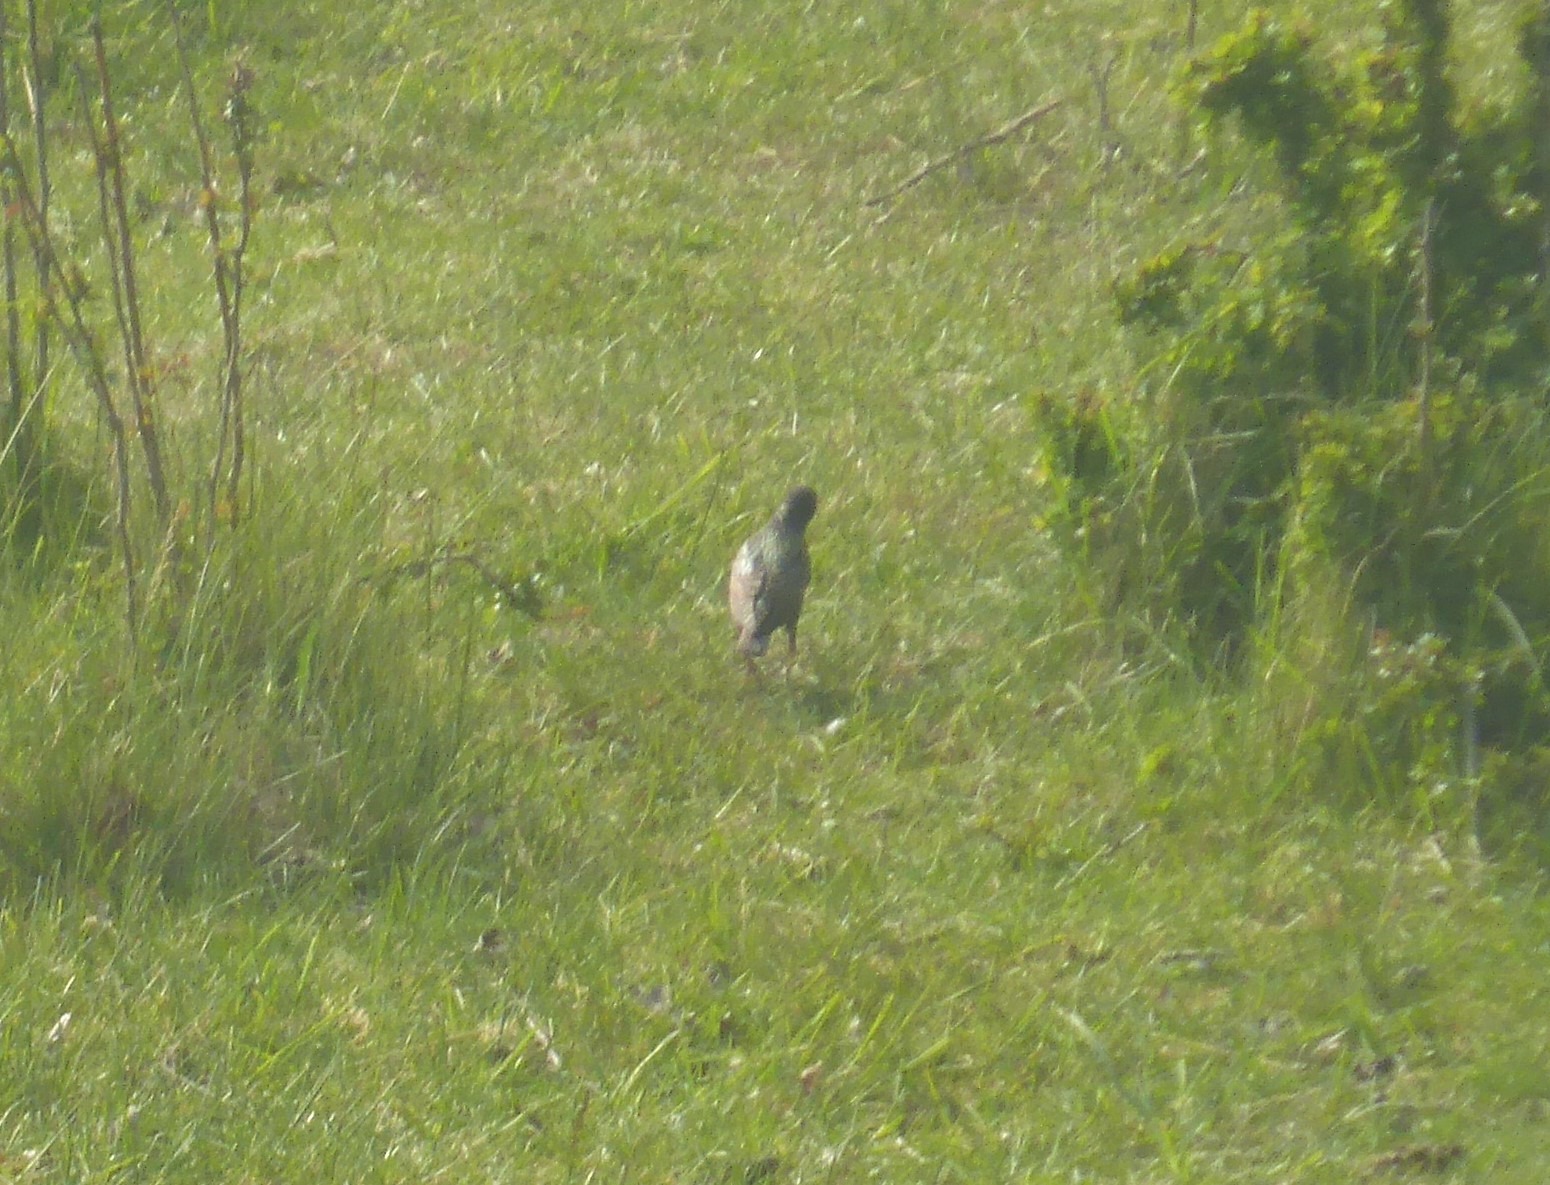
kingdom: Animalia
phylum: Chordata
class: Aves
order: Passeriformes
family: Sturnidae
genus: Sturnus
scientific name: Sturnus vulgaris
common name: Stær
